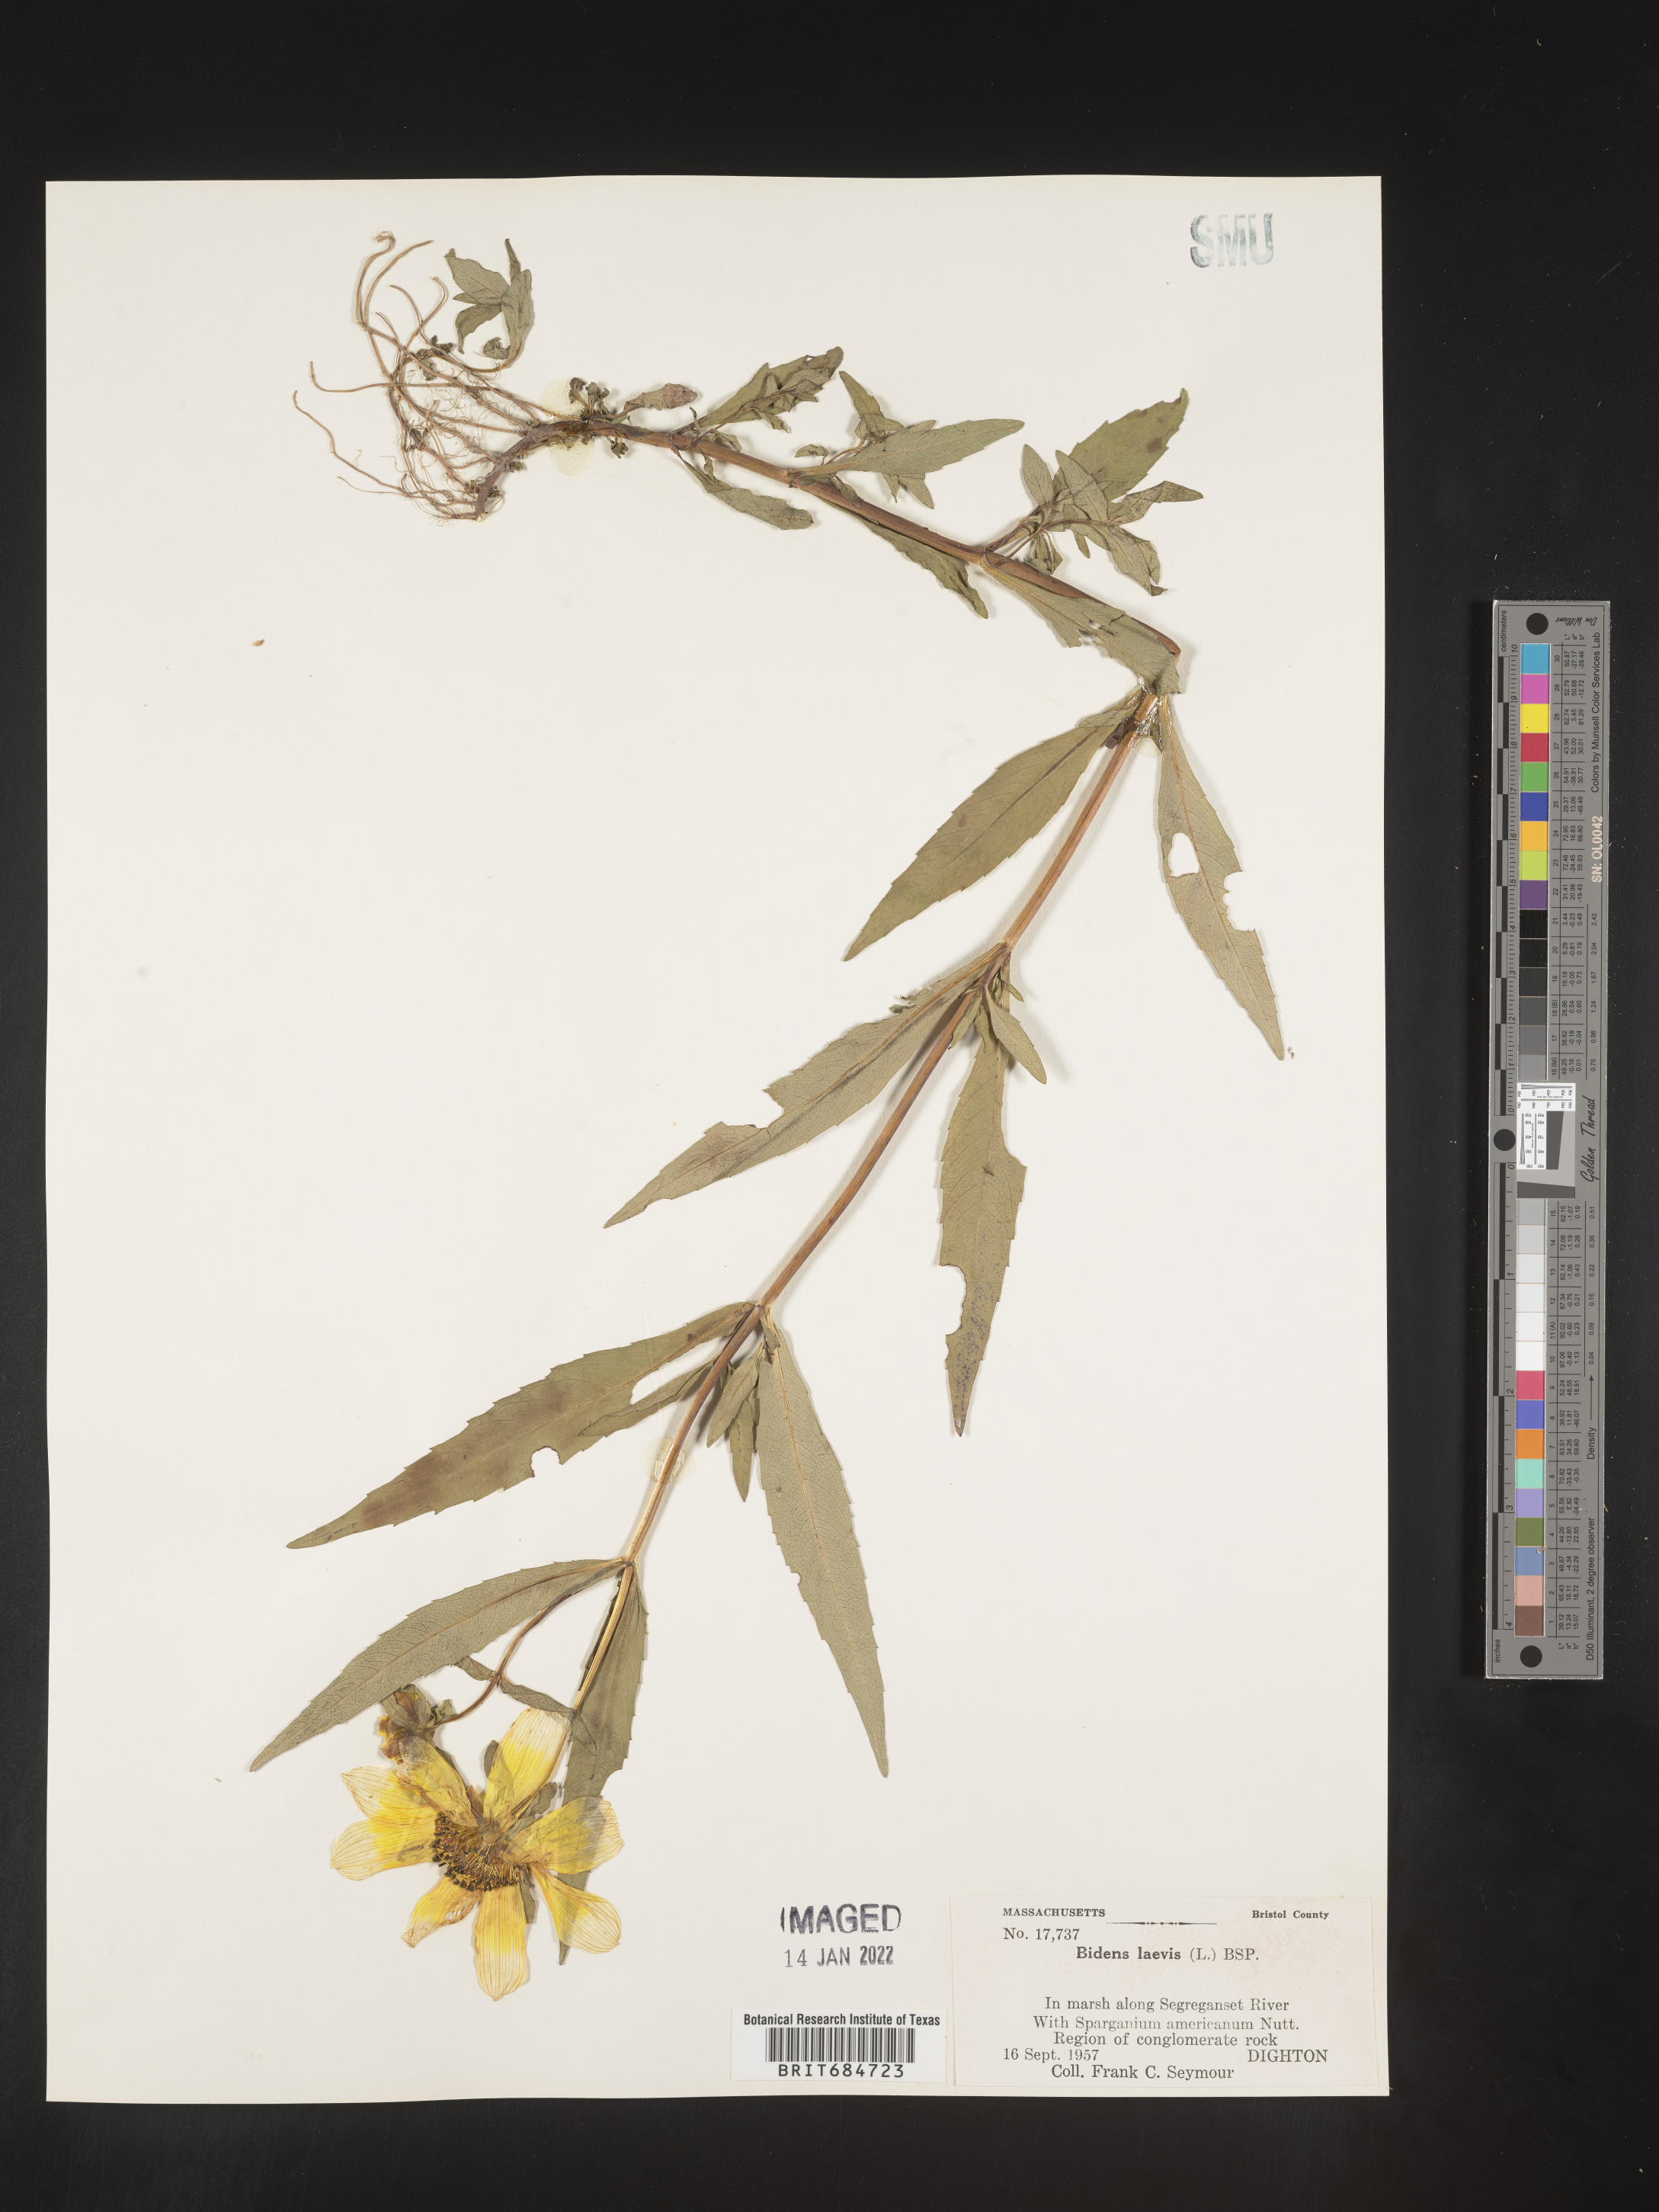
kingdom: Plantae
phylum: Tracheophyta
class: Magnoliopsida
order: Asterales
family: Asteraceae
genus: Bidens
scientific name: Bidens laevis
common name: Larger bur-marigold
